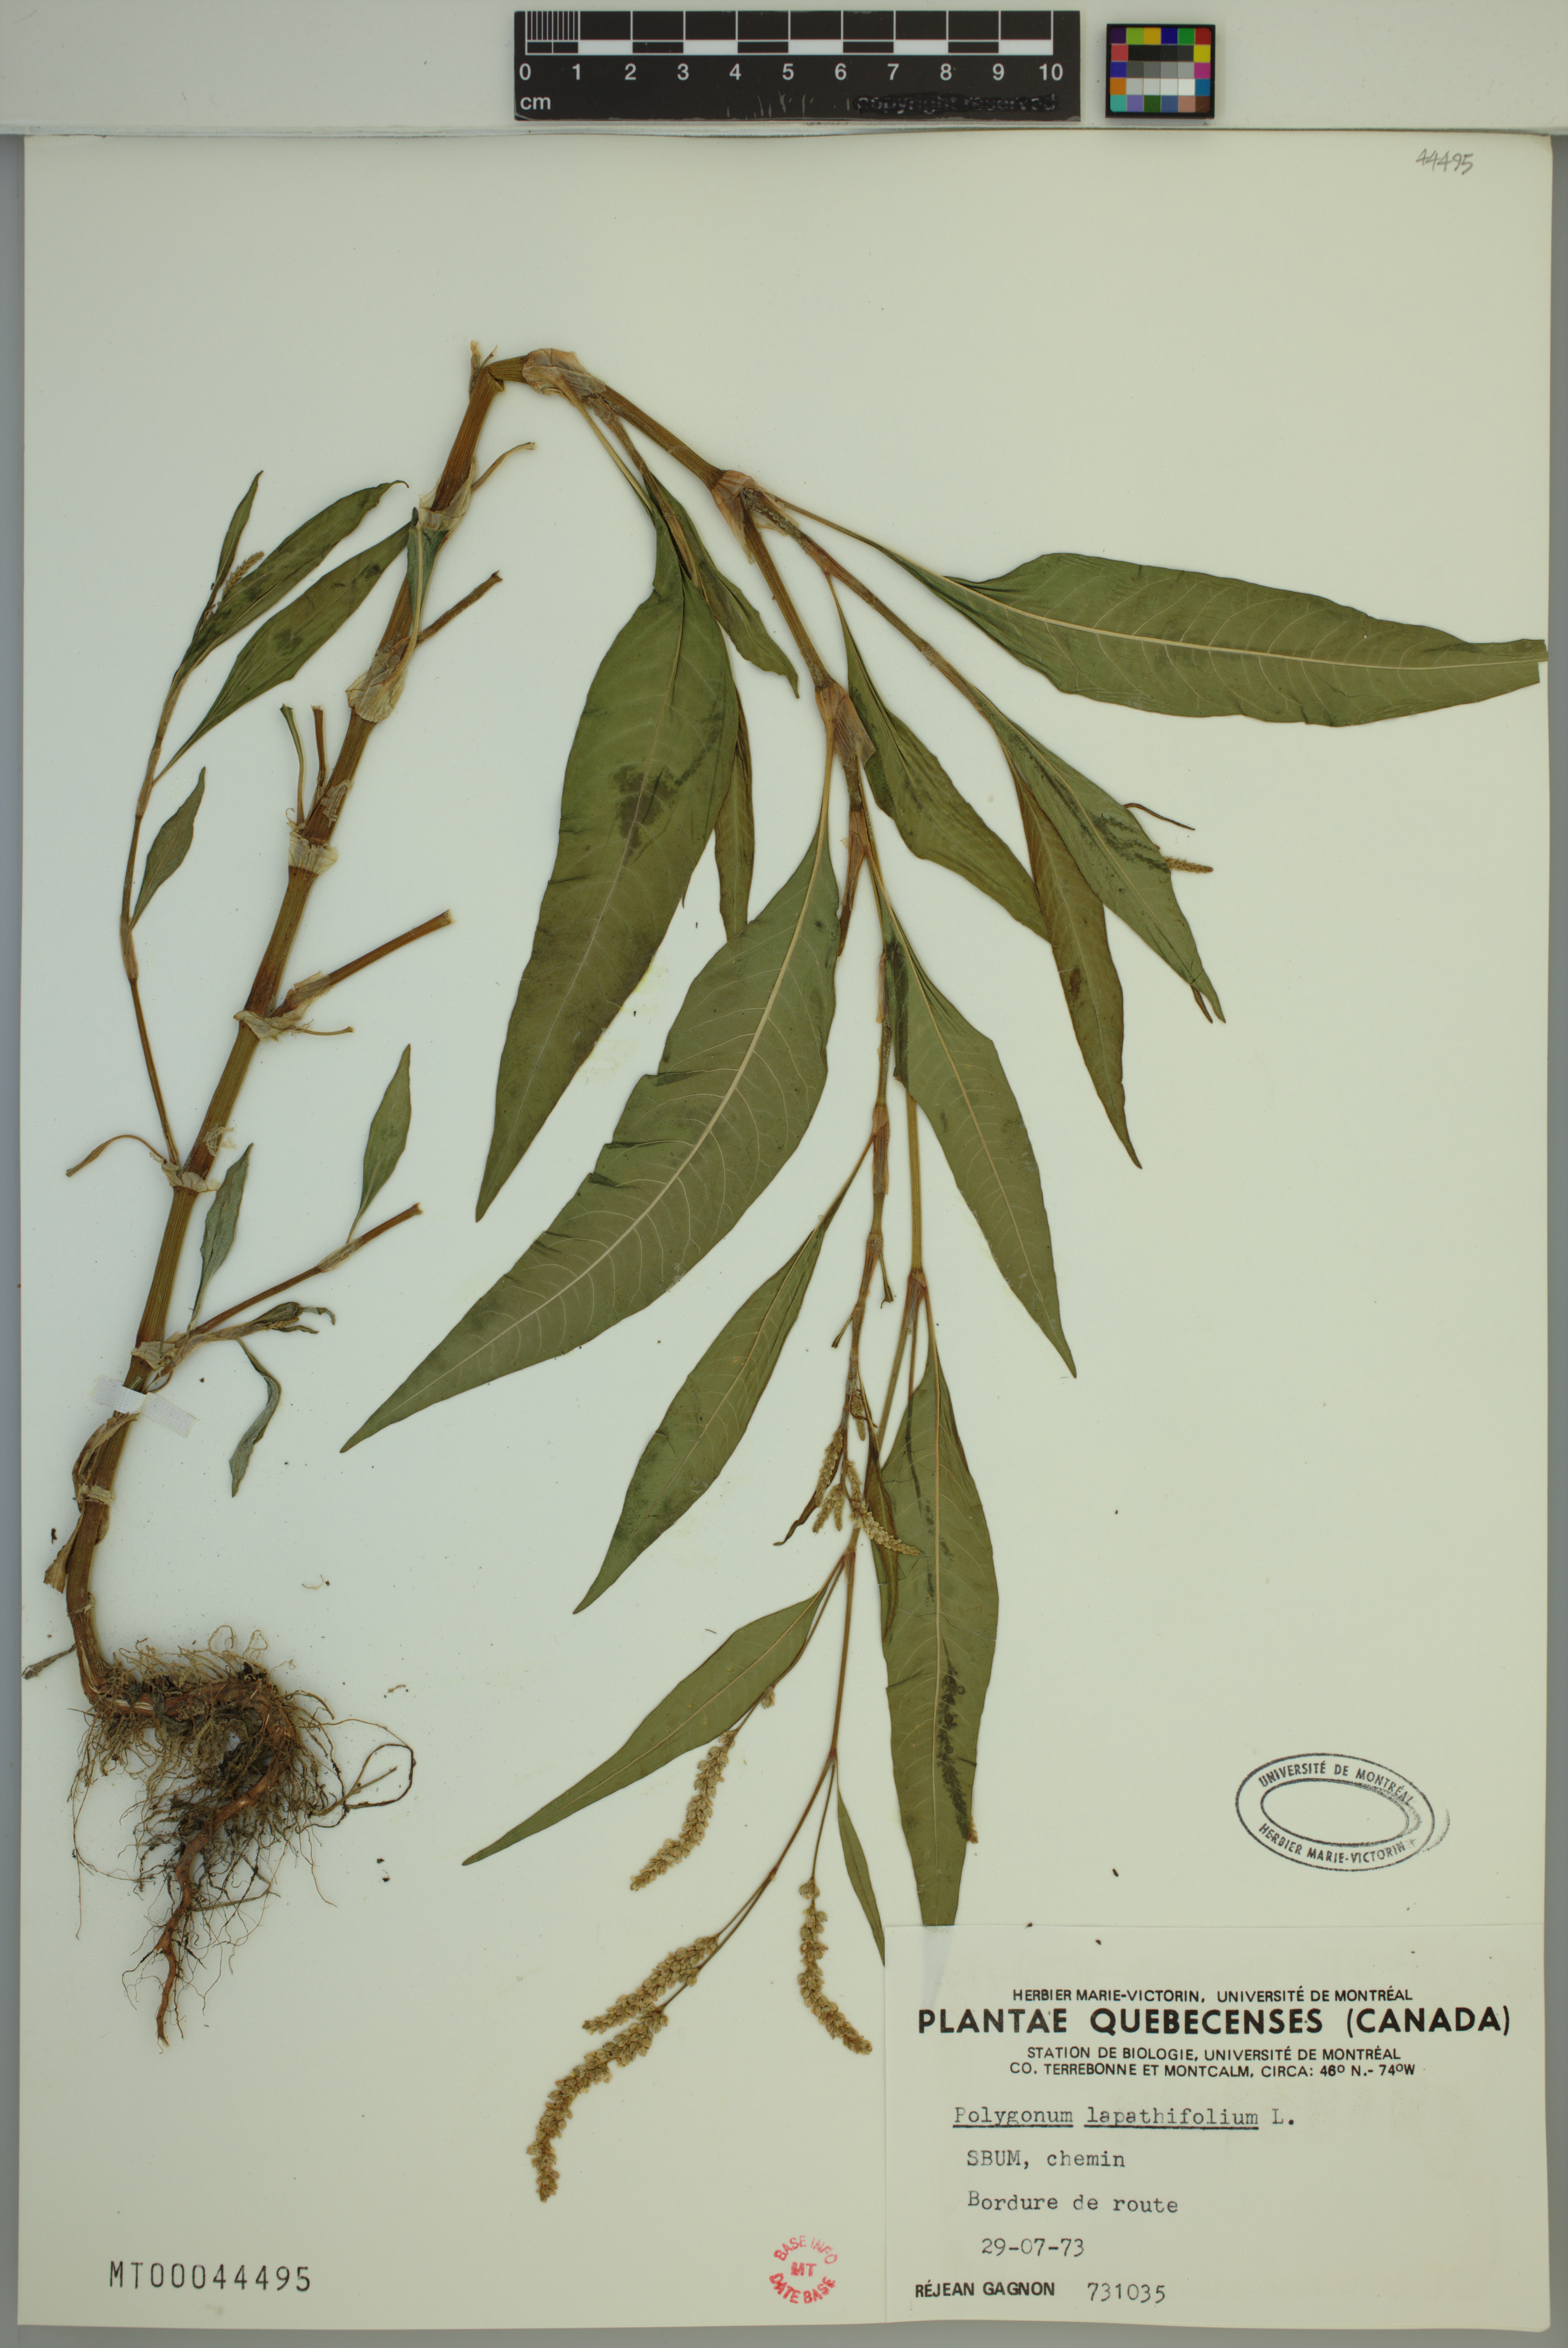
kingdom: Plantae
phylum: Tracheophyta
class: Magnoliopsida
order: Caryophyllales
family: Polygonaceae
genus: Persicaria
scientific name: Persicaria lapathifolia
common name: Curlytop knotweed
